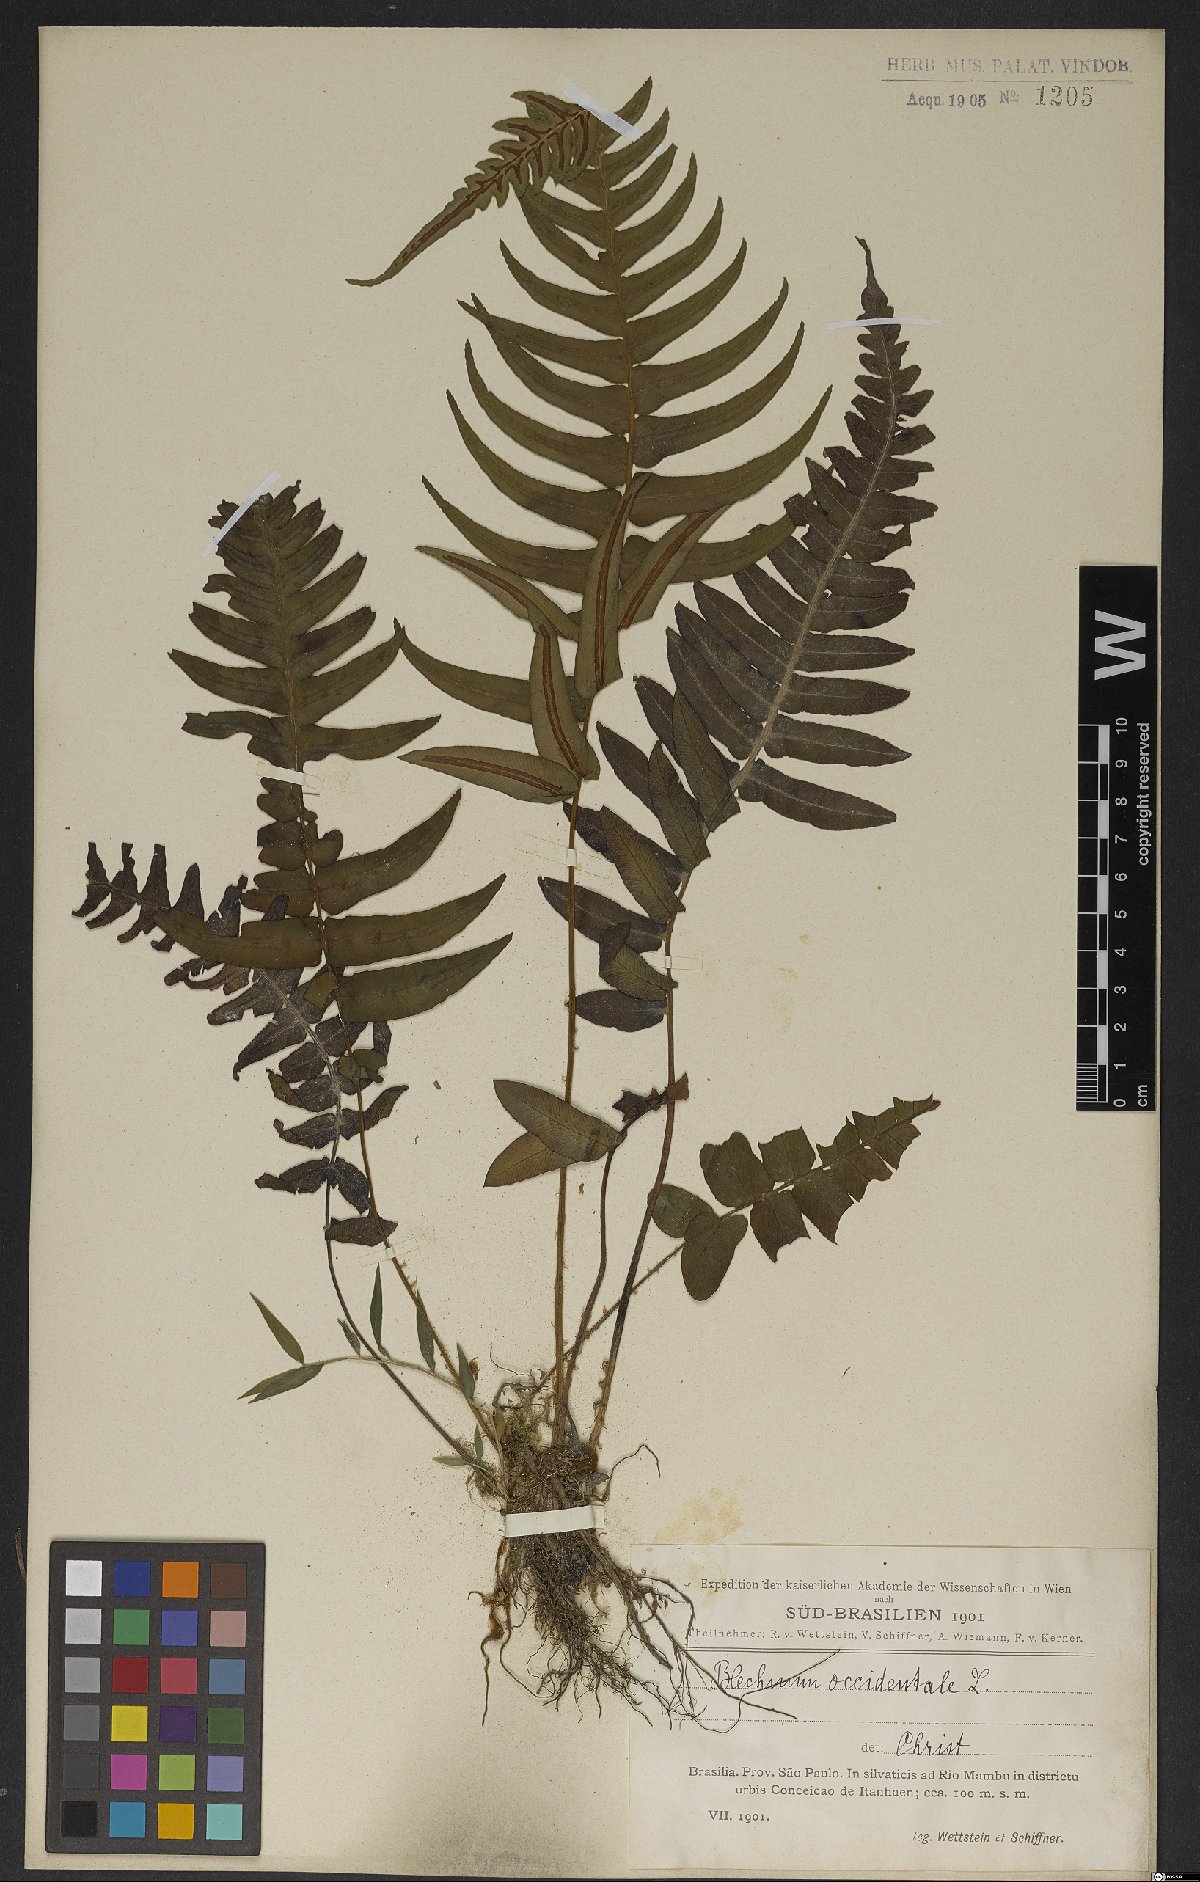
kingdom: Plantae
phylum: Tracheophyta
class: Polypodiopsida
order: Polypodiales
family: Blechnaceae
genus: Blechnum
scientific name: Blechnum occidentale
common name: Hammock fern
